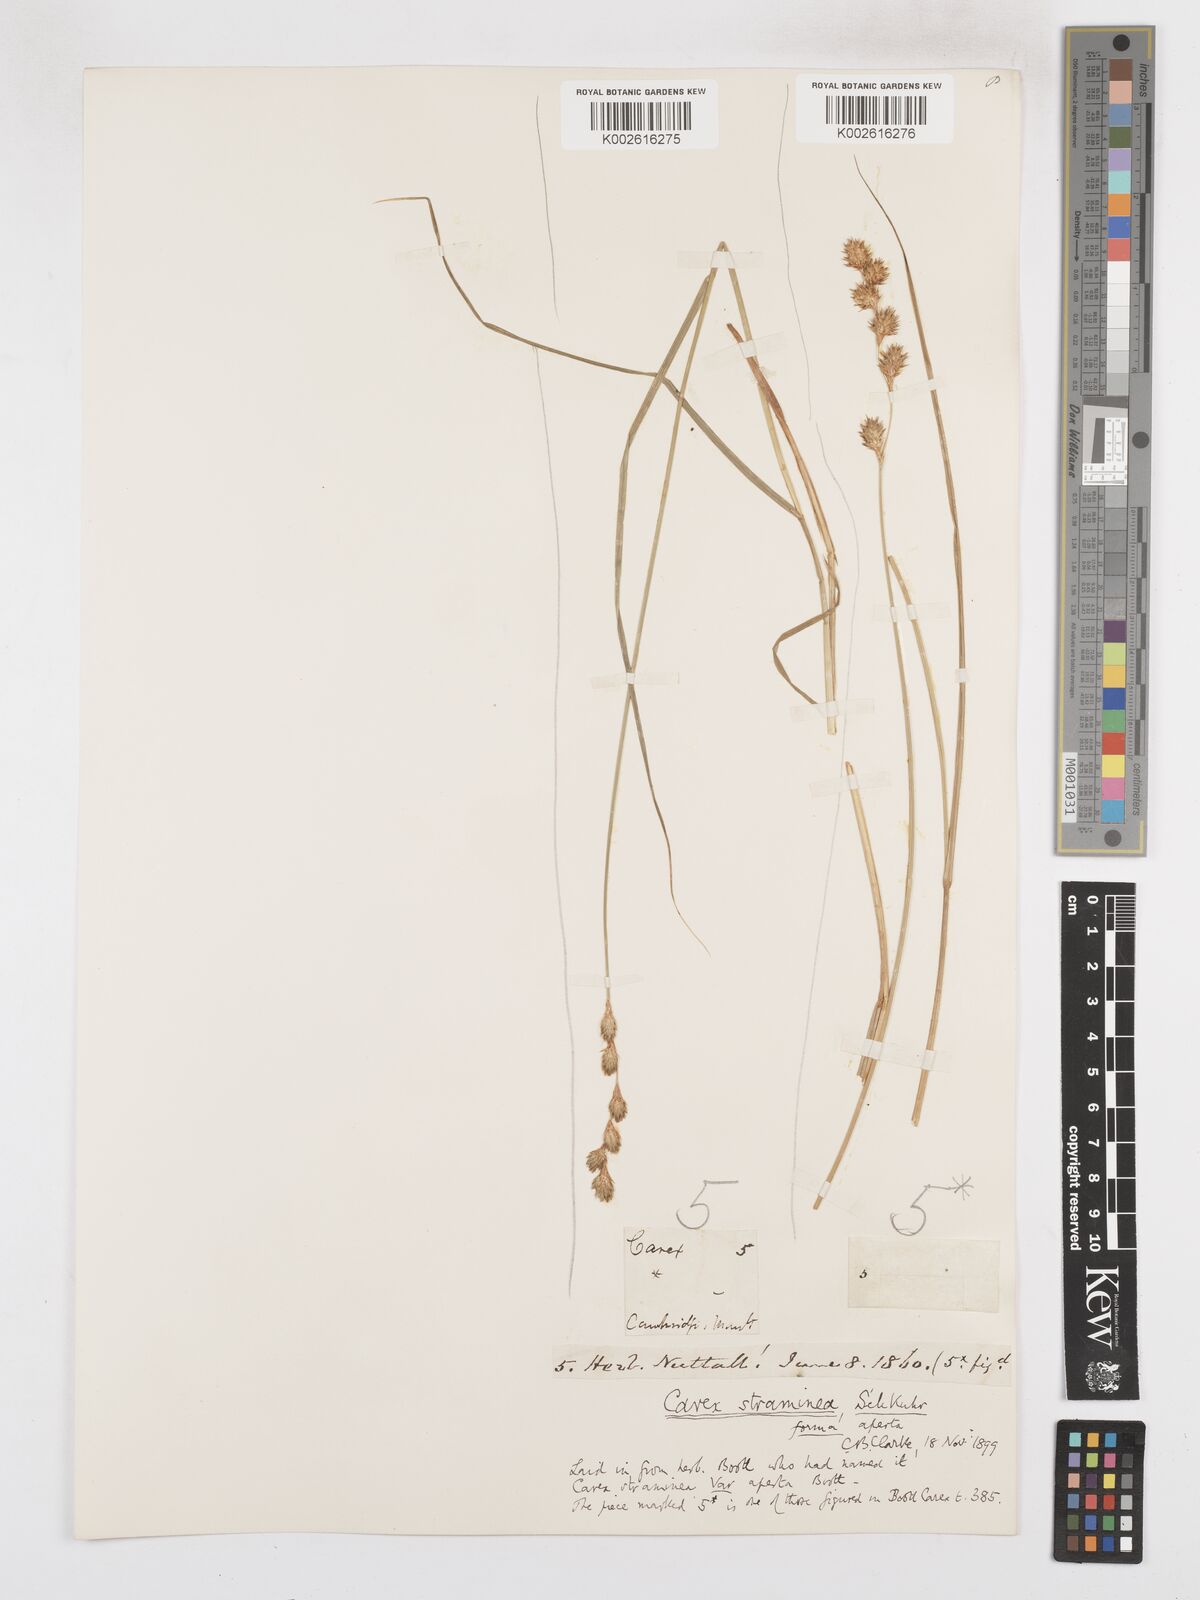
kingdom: Plantae
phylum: Tracheophyta
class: Liliopsida
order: Poales
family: Cyperaceae
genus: Carex
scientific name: Carex straminea
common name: Eastern straw sedge
